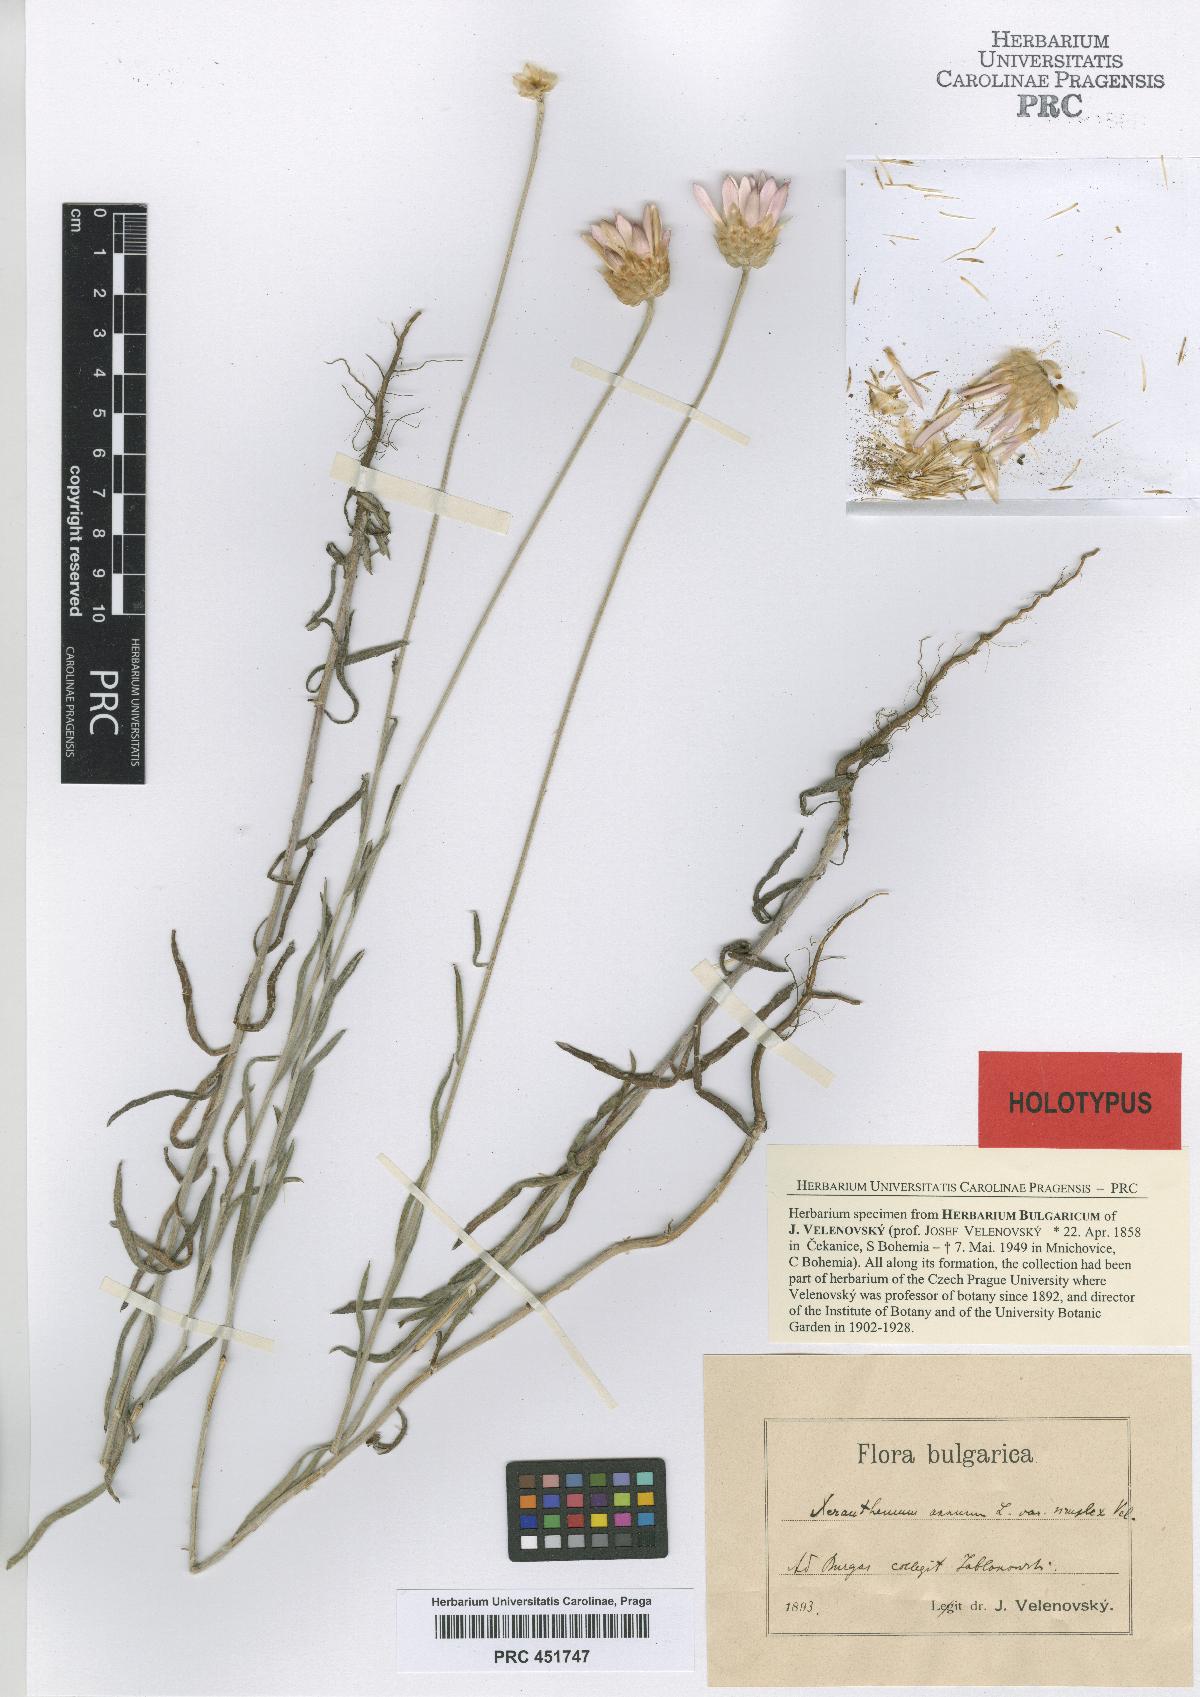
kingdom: Plantae
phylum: Tracheophyta
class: Magnoliopsida
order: Asterales
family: Asteraceae
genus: Xeranthemum
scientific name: Xeranthemum annuum
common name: Immortelle
